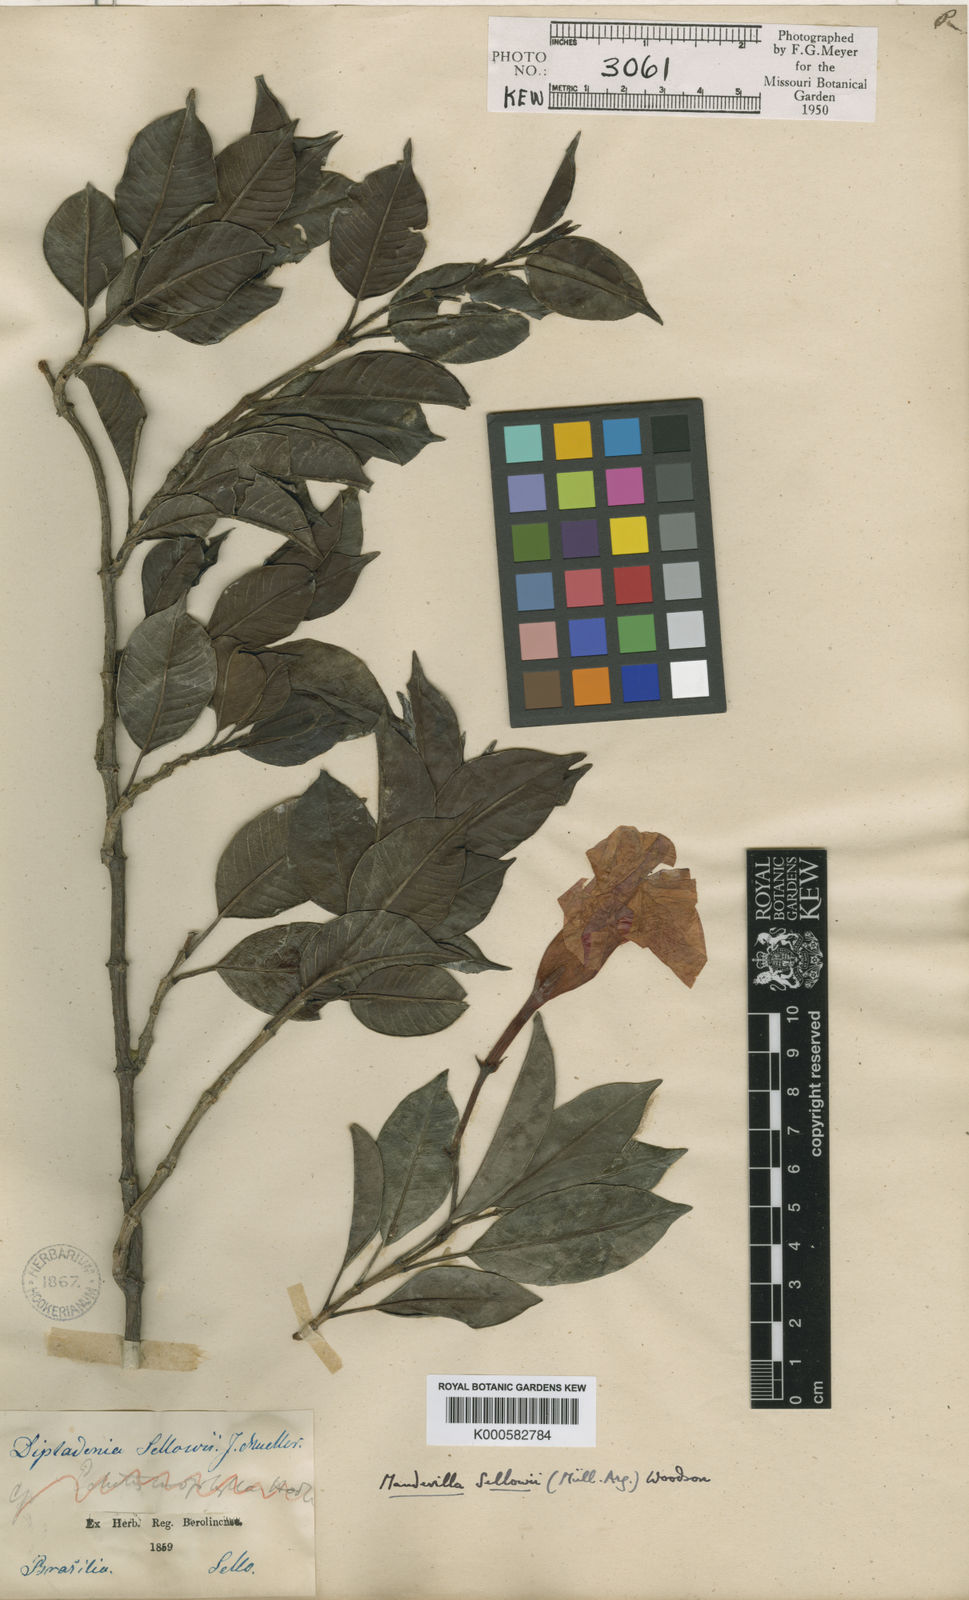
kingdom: Plantae
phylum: Tracheophyta
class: Magnoliopsida
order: Gentianales
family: Apocynaceae
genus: Mandevilla
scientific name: Mandevilla
